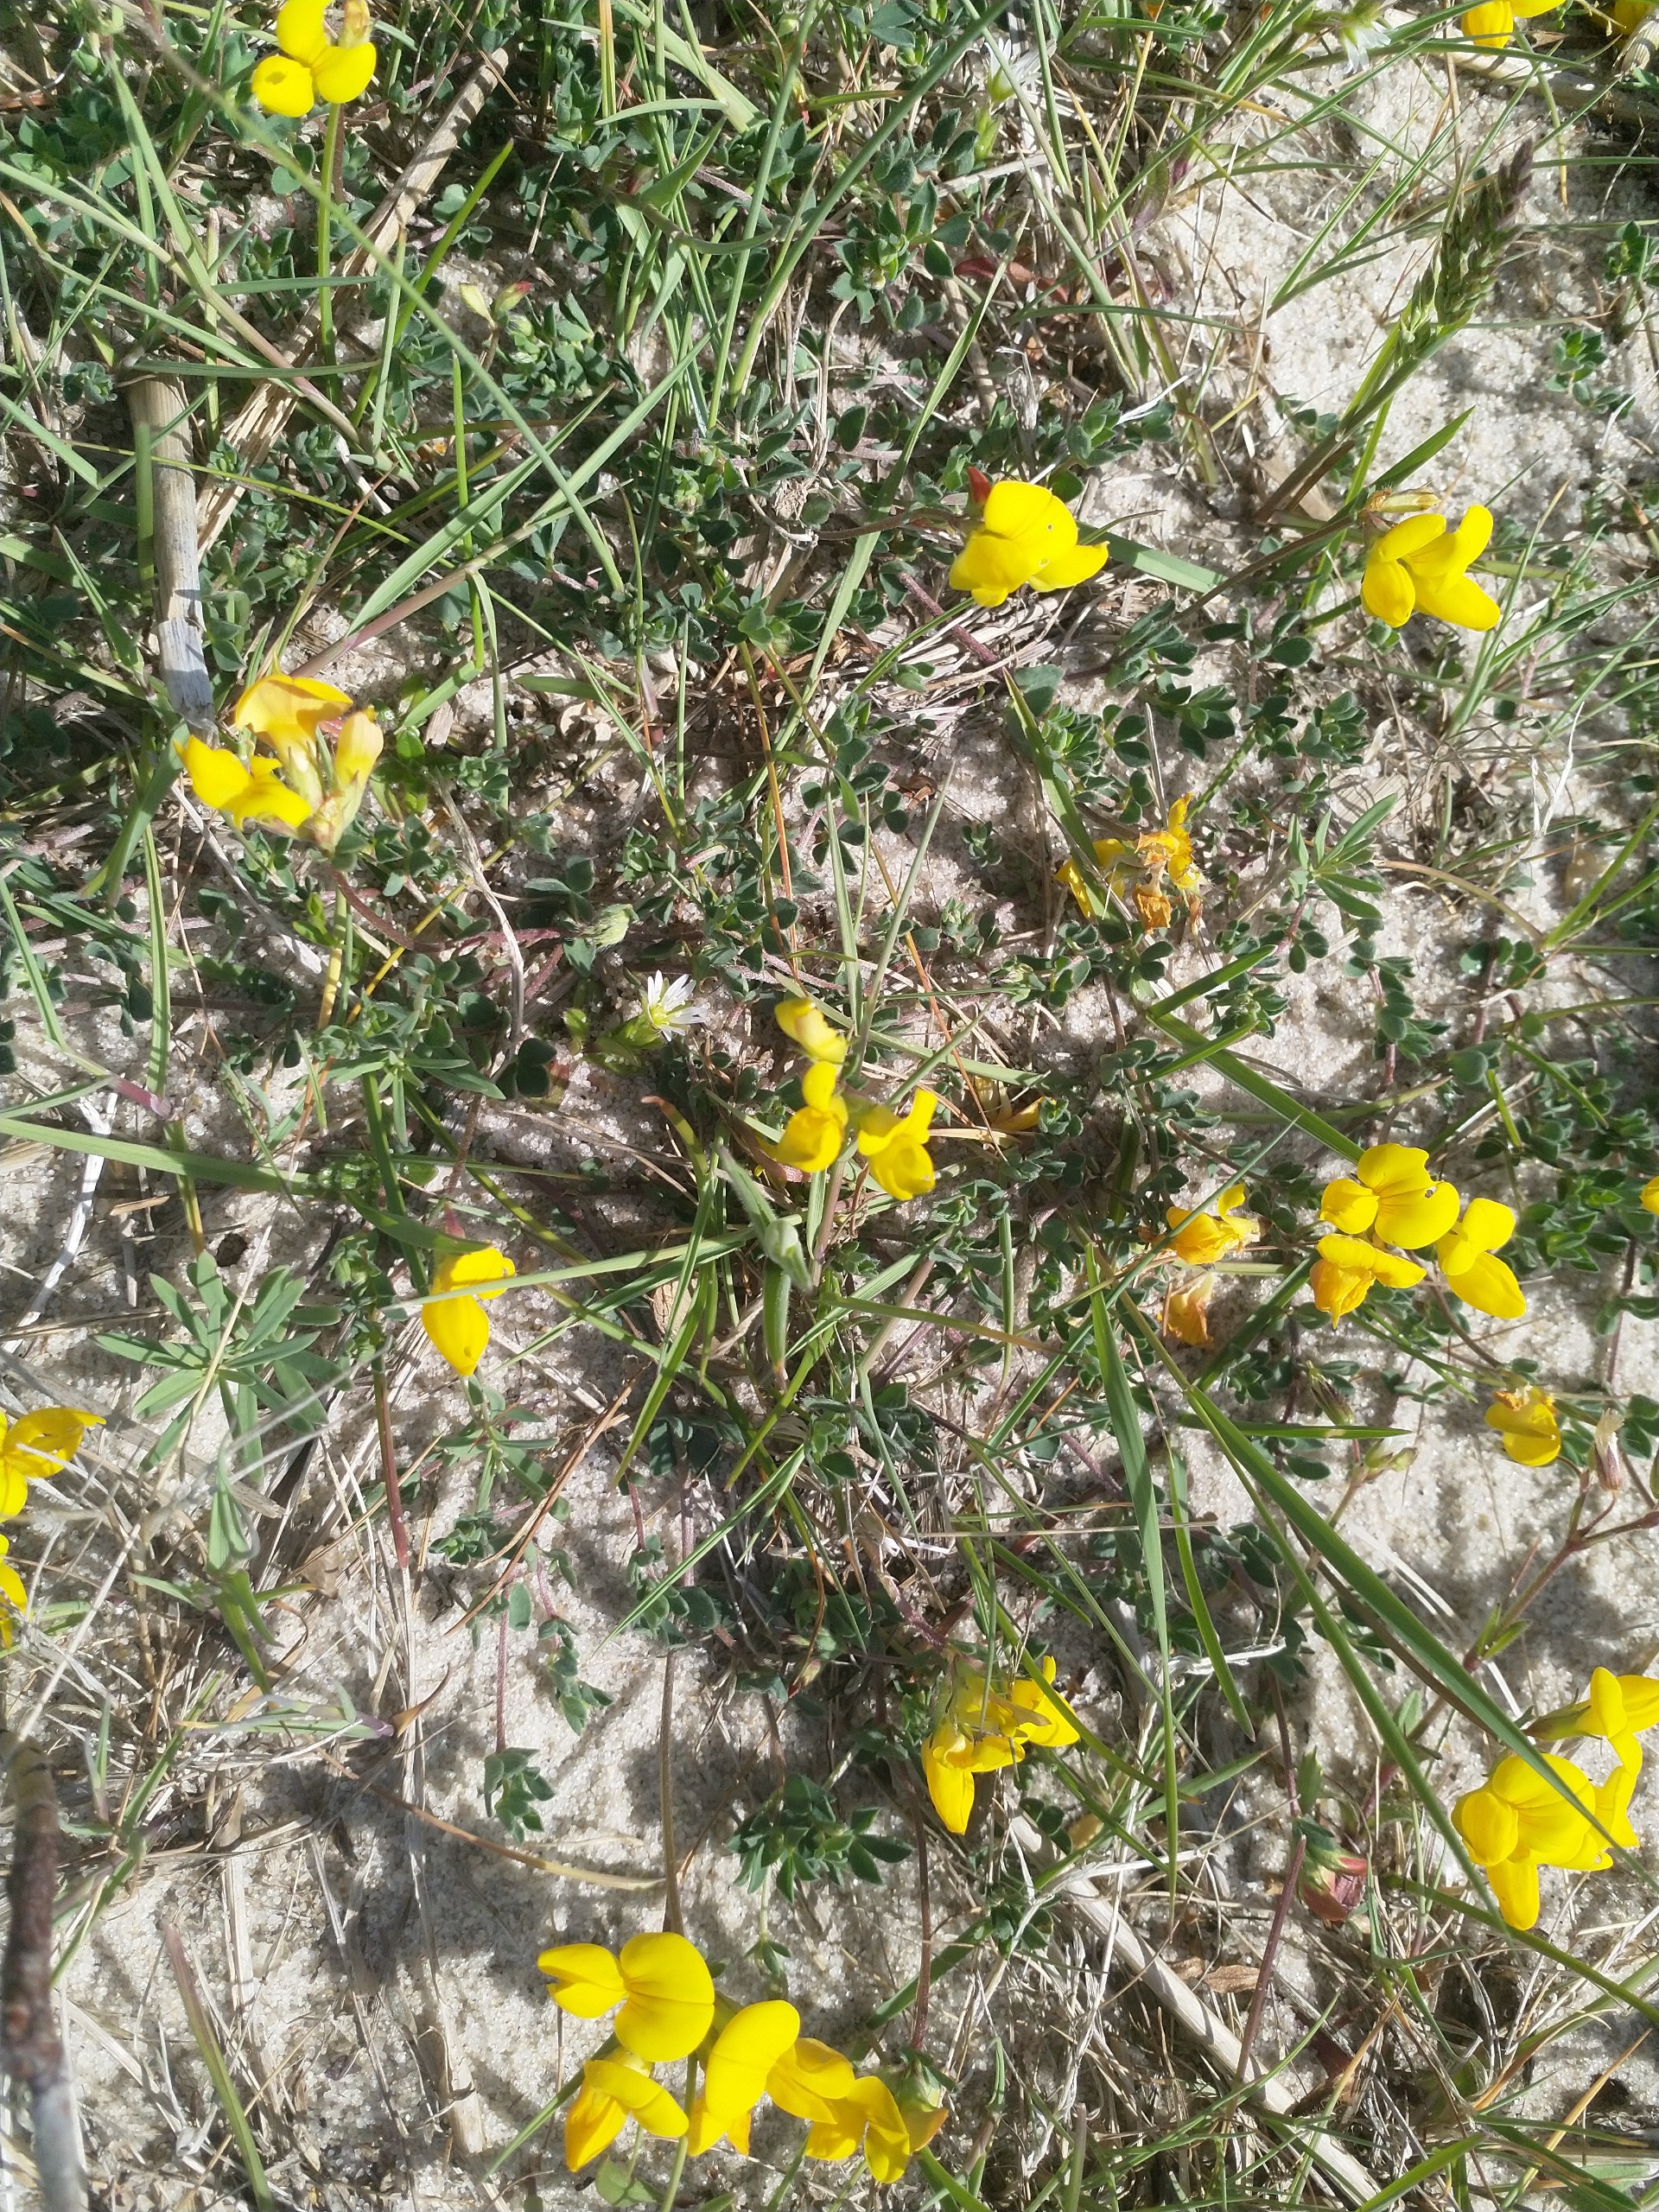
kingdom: Plantae
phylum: Tracheophyta
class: Magnoliopsida
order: Fabales
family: Fabaceae
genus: Lotus
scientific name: Lotus corniculatus
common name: Almindelig kællingetand
